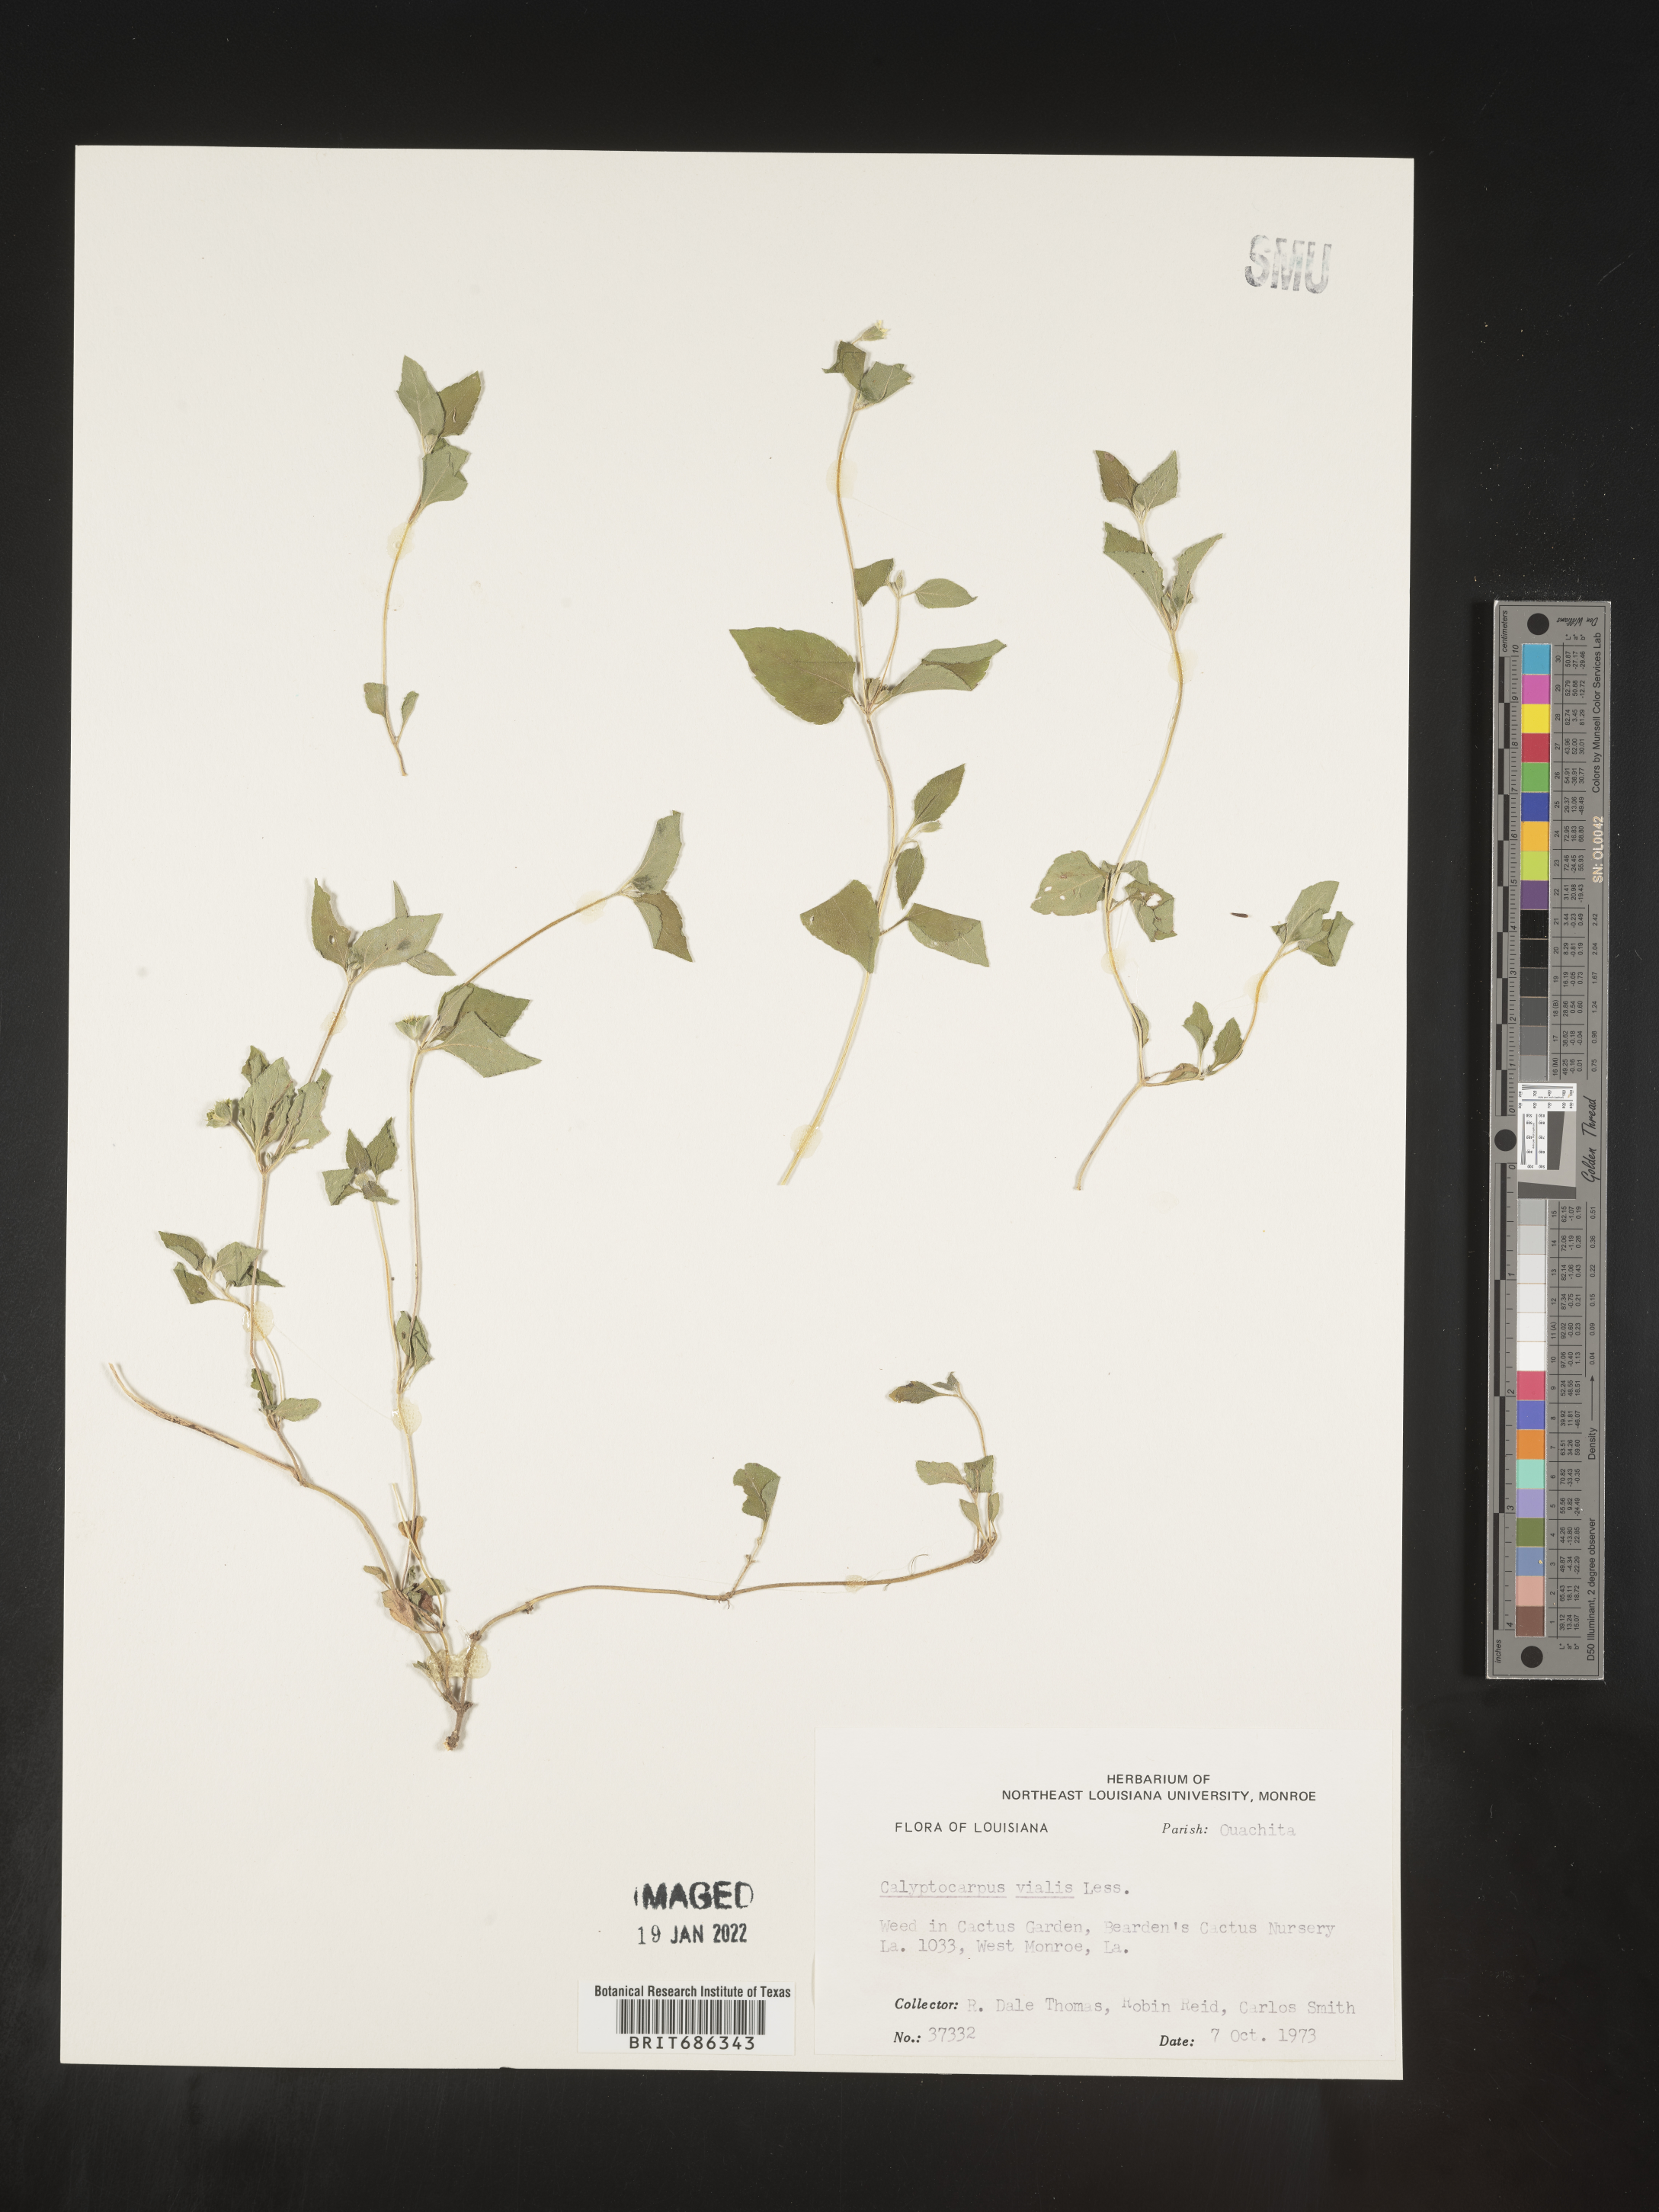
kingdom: Plantae
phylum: Tracheophyta
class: Magnoliopsida
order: Asterales
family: Asteraceae
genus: Calyptocarpus
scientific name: Calyptocarpus
